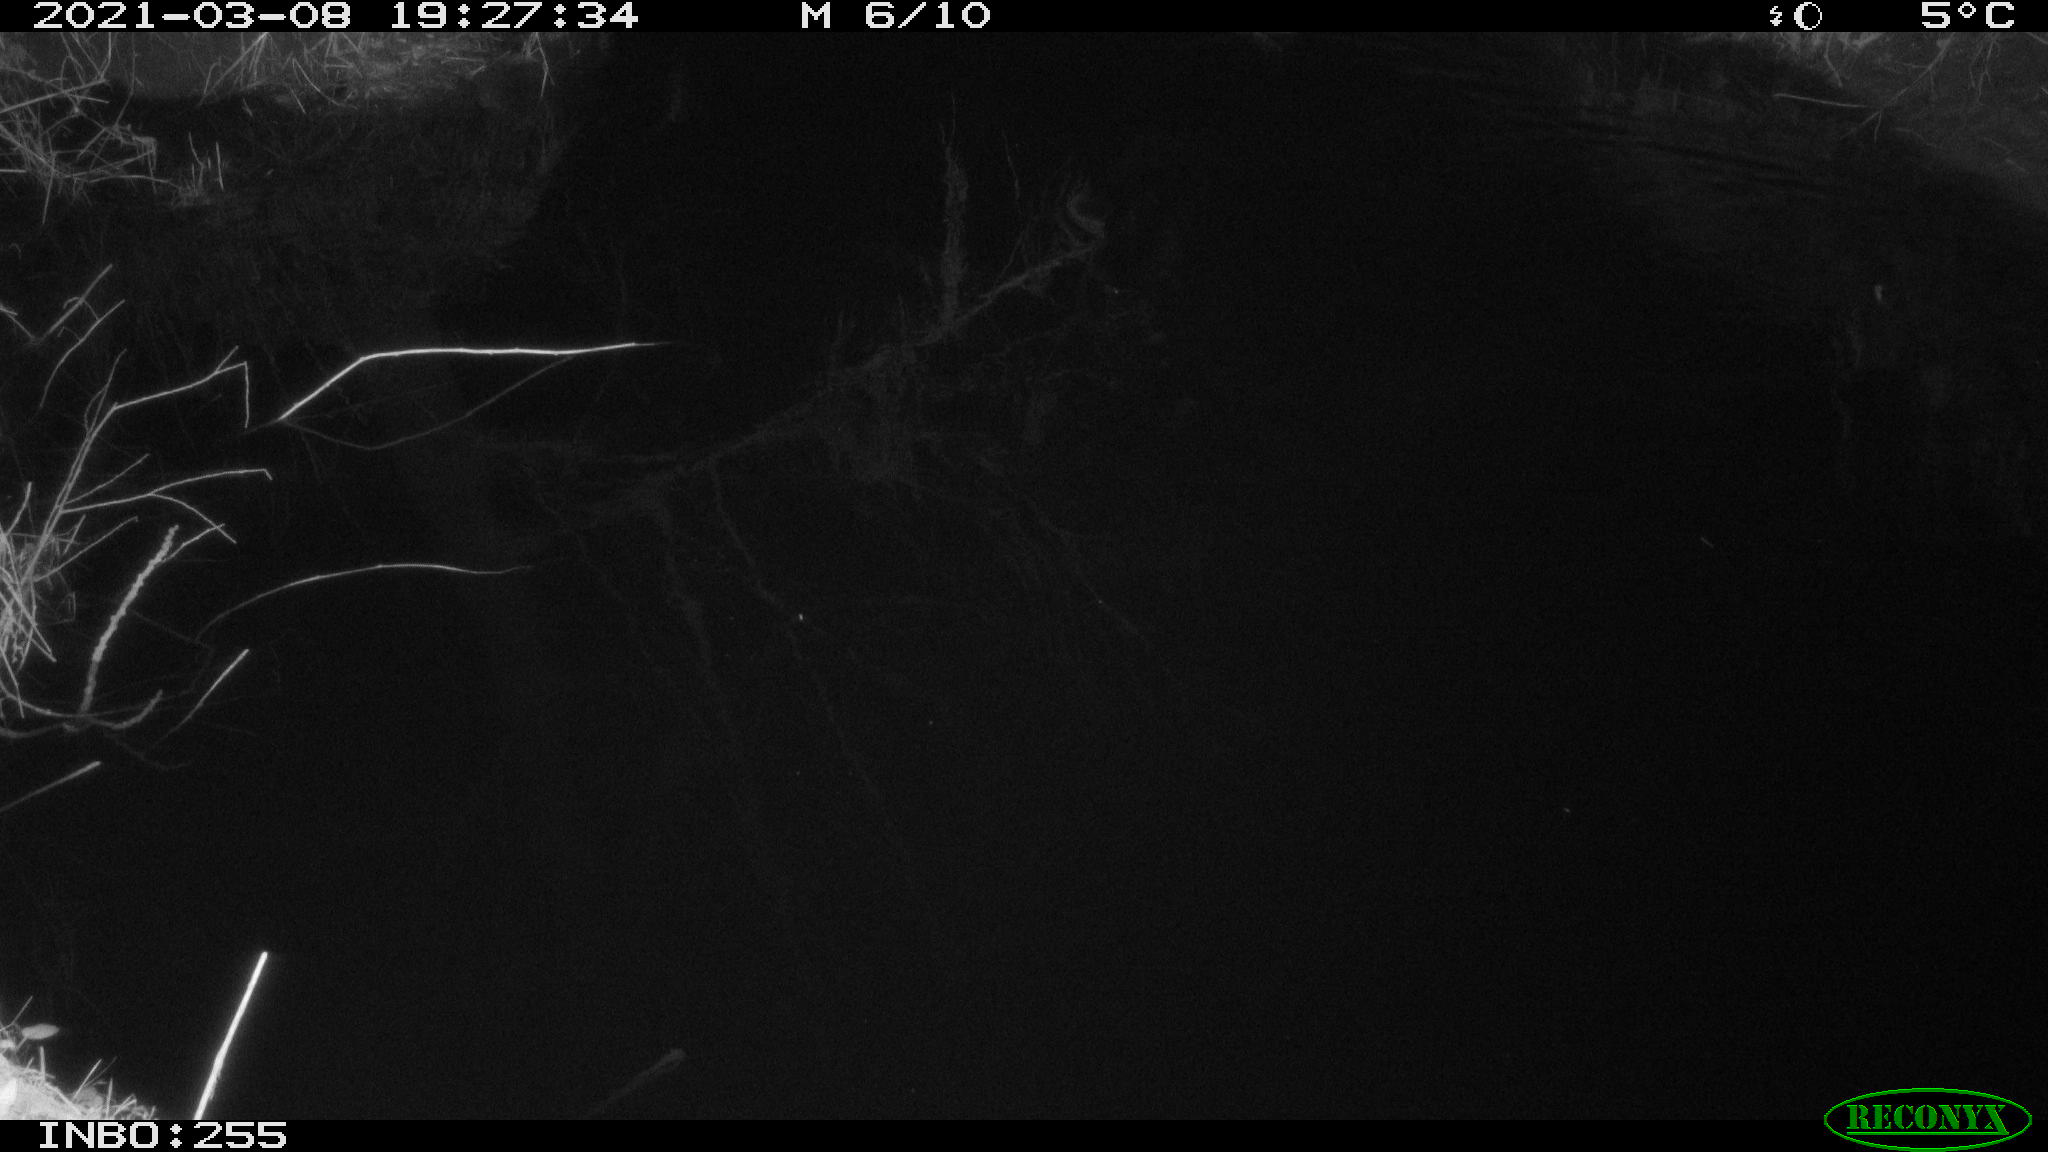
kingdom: Animalia
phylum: Chordata
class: Aves
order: Anseriformes
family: Anatidae
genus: Anas
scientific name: Anas platyrhynchos
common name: Mallard
